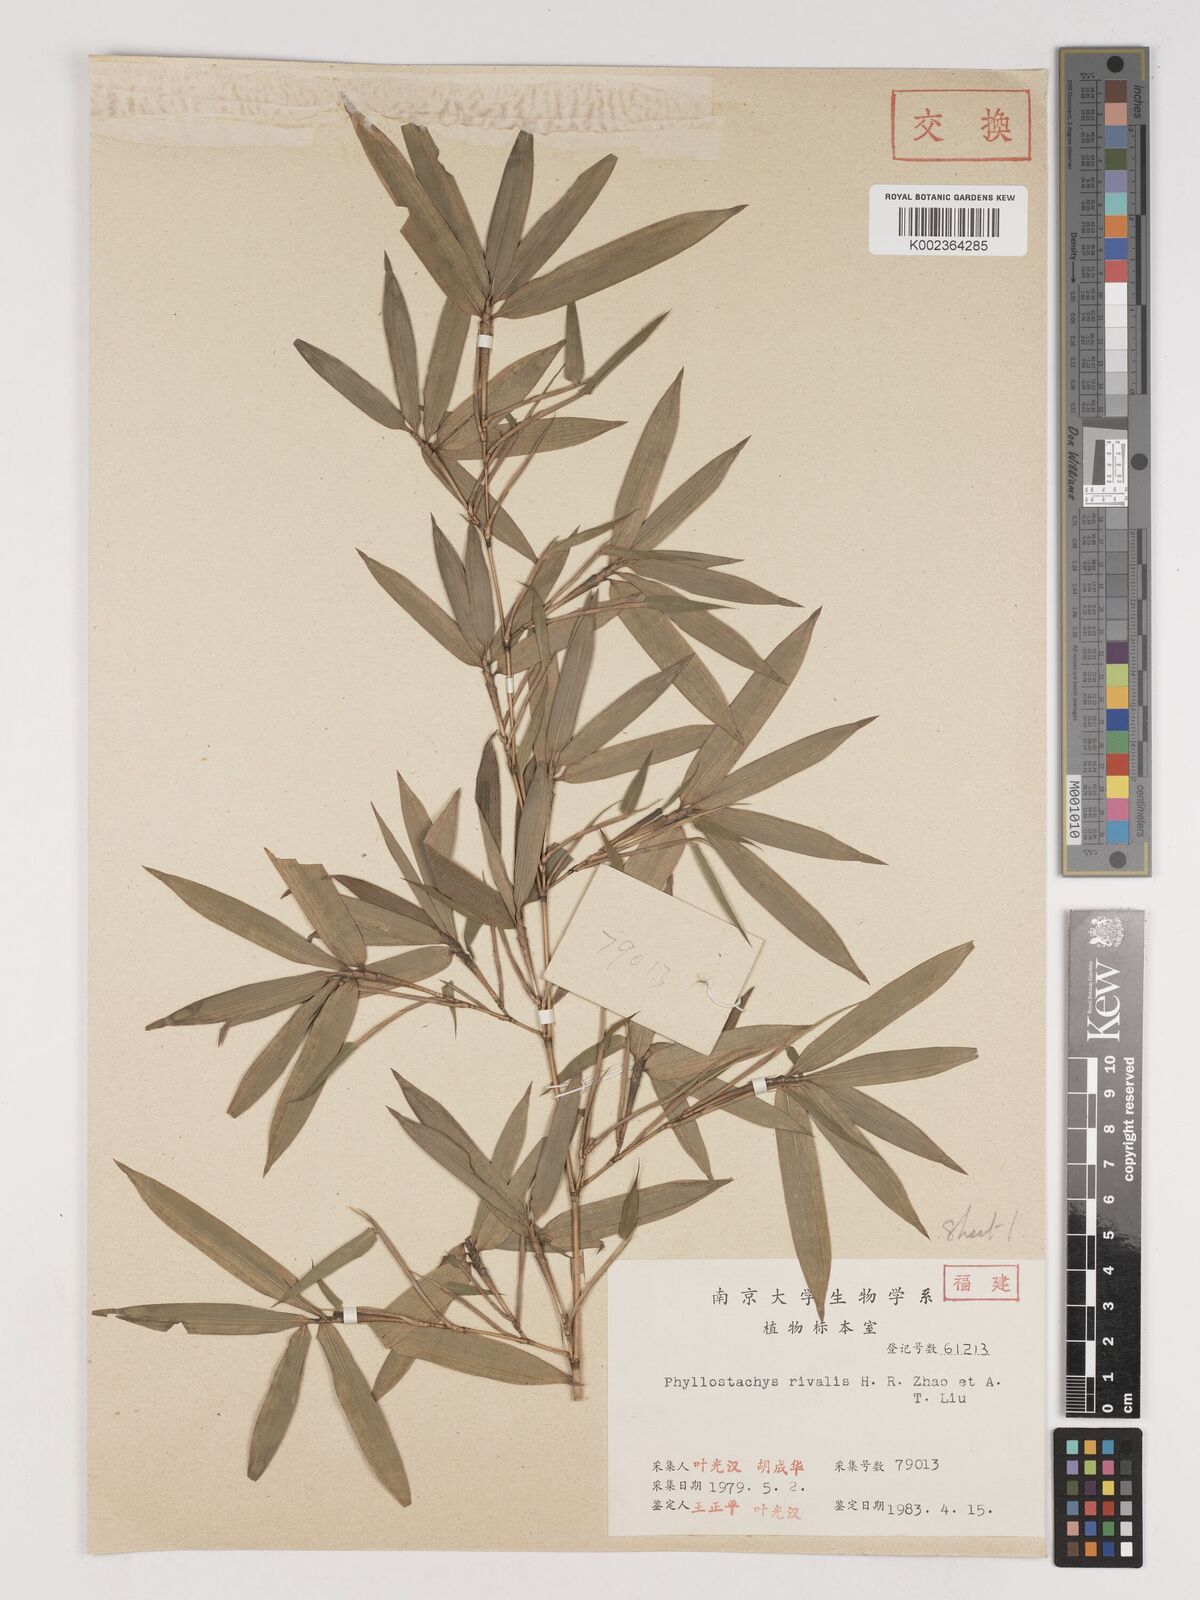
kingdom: Plantae
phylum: Tracheophyta
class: Liliopsida
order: Poales
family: Poaceae
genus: Phyllostachys
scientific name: Phyllostachys rivalis
